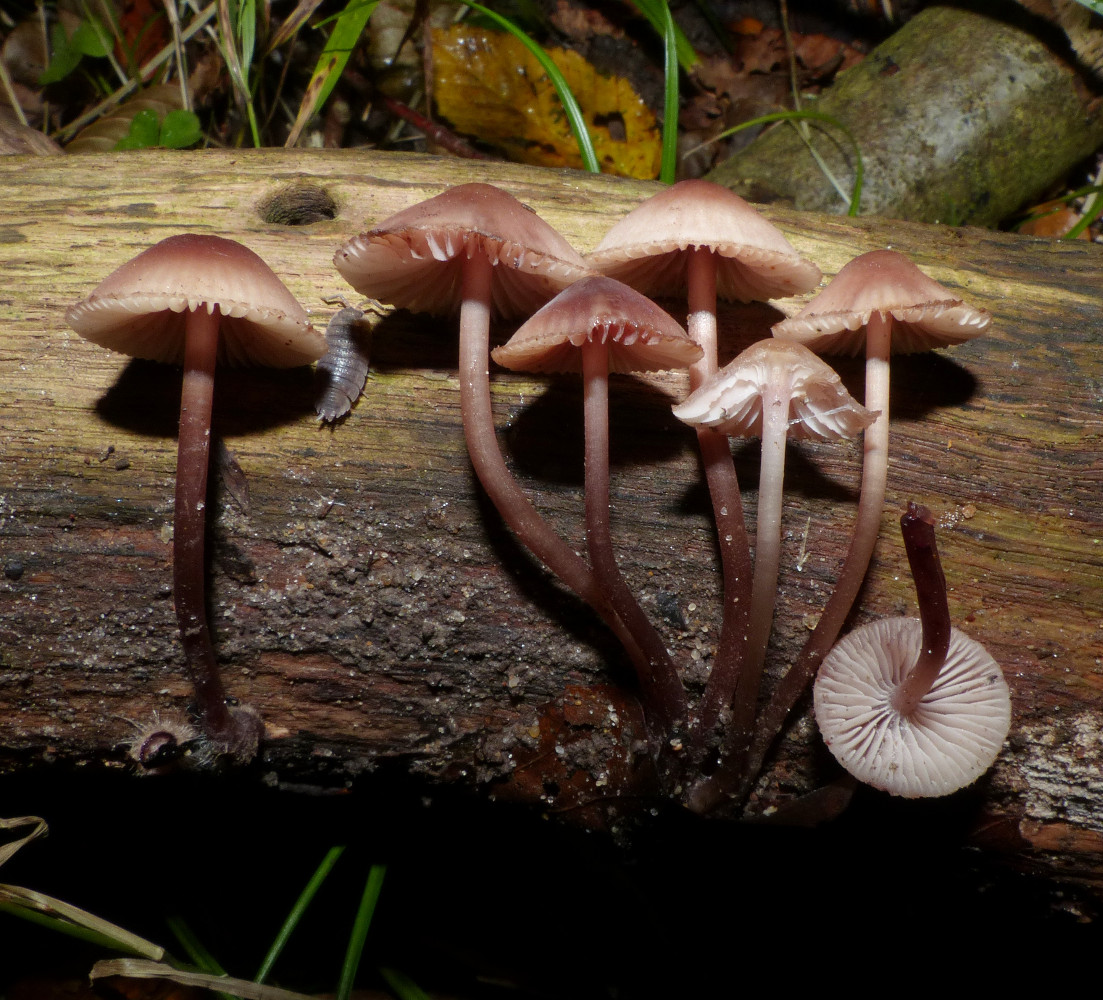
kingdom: Fungi
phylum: Basidiomycota
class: Agaricomycetes
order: Agaricales
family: Mycenaceae
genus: Mycena
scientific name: Mycena haematopus
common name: blødende huesvamp
